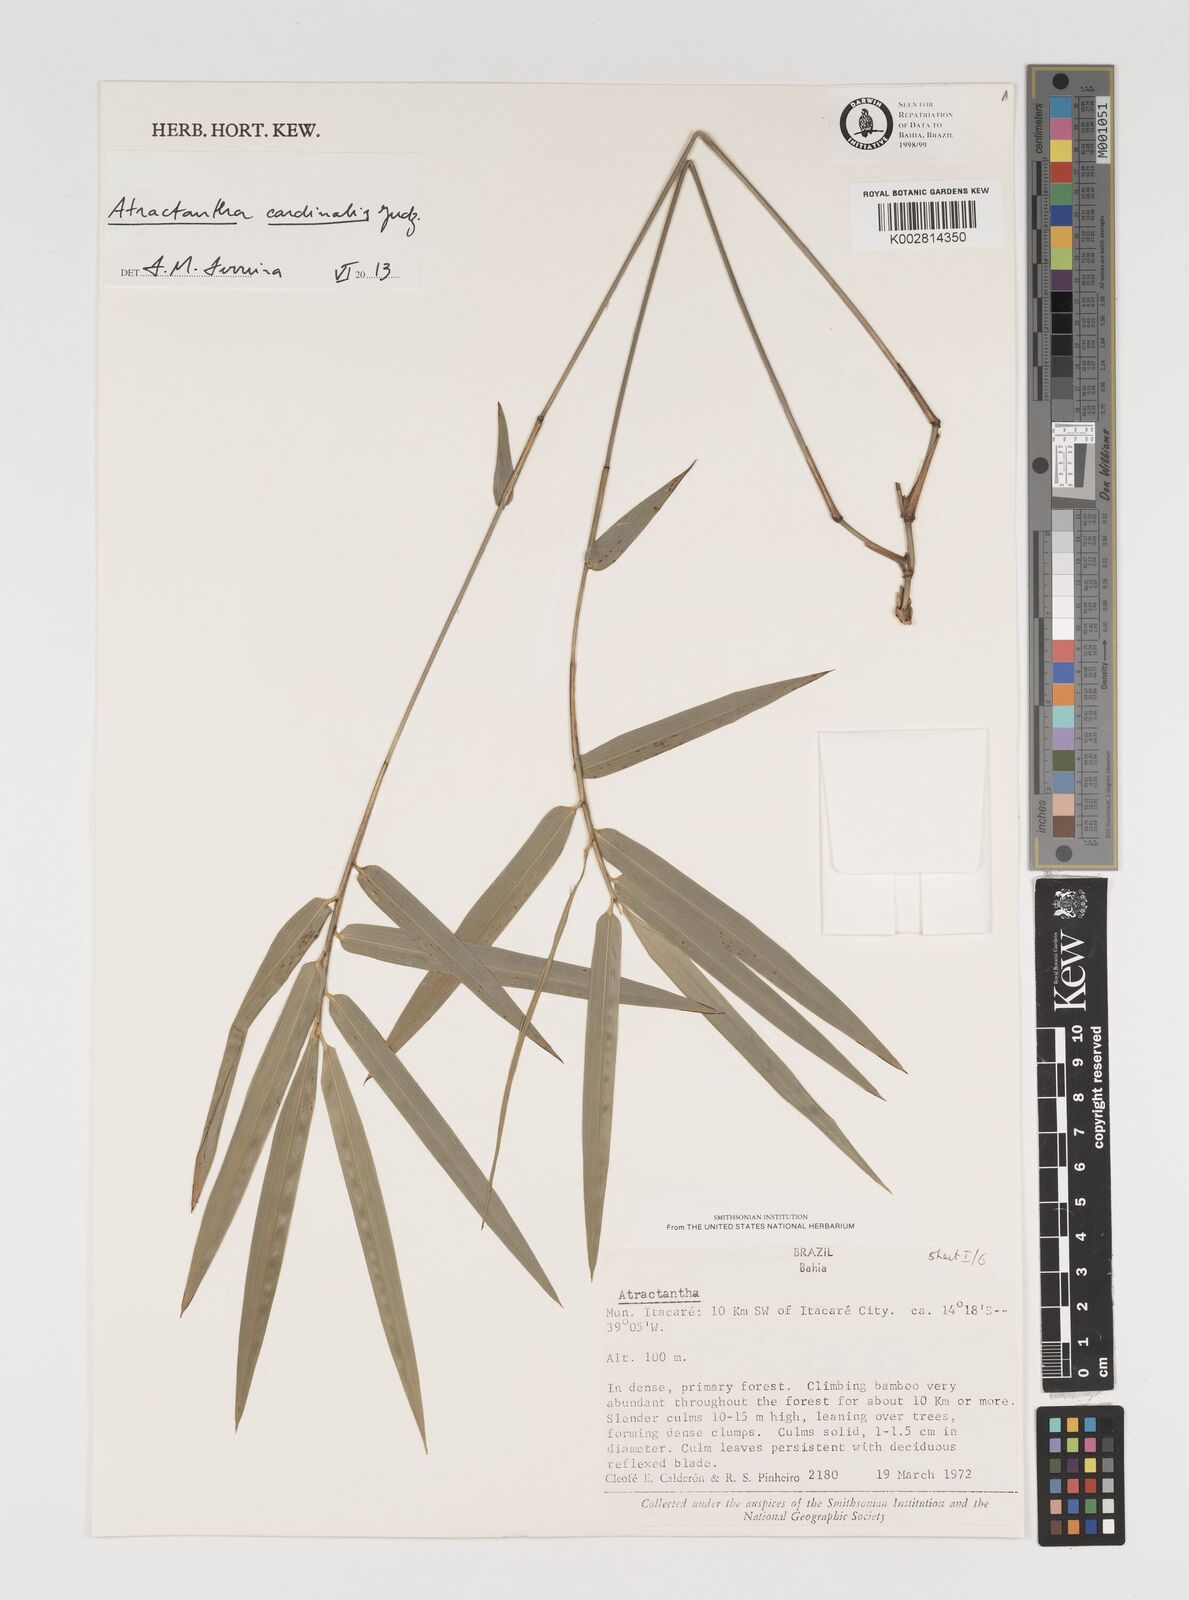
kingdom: Plantae
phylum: Tracheophyta
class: Liliopsida
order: Poales
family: Poaceae
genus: Atractantha
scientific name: Atractantha aureolanata
